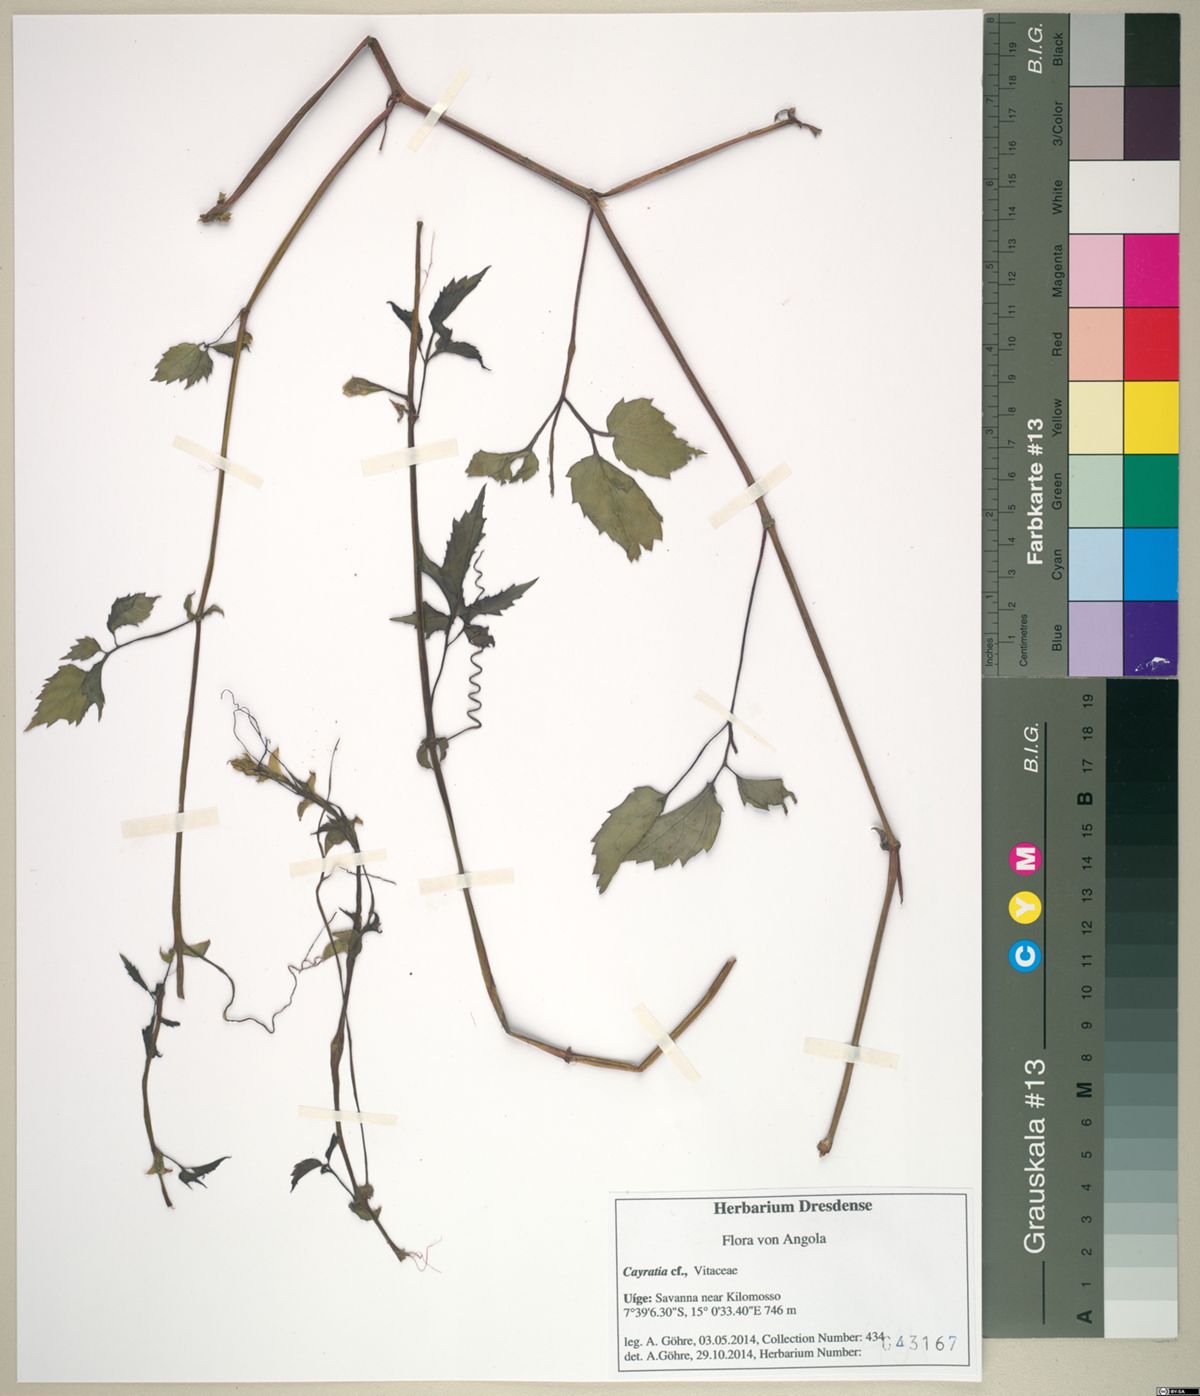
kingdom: Plantae
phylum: Tracheophyta
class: Magnoliopsida
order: Vitales
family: Vitaceae
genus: Cayratia
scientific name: Cayratia
